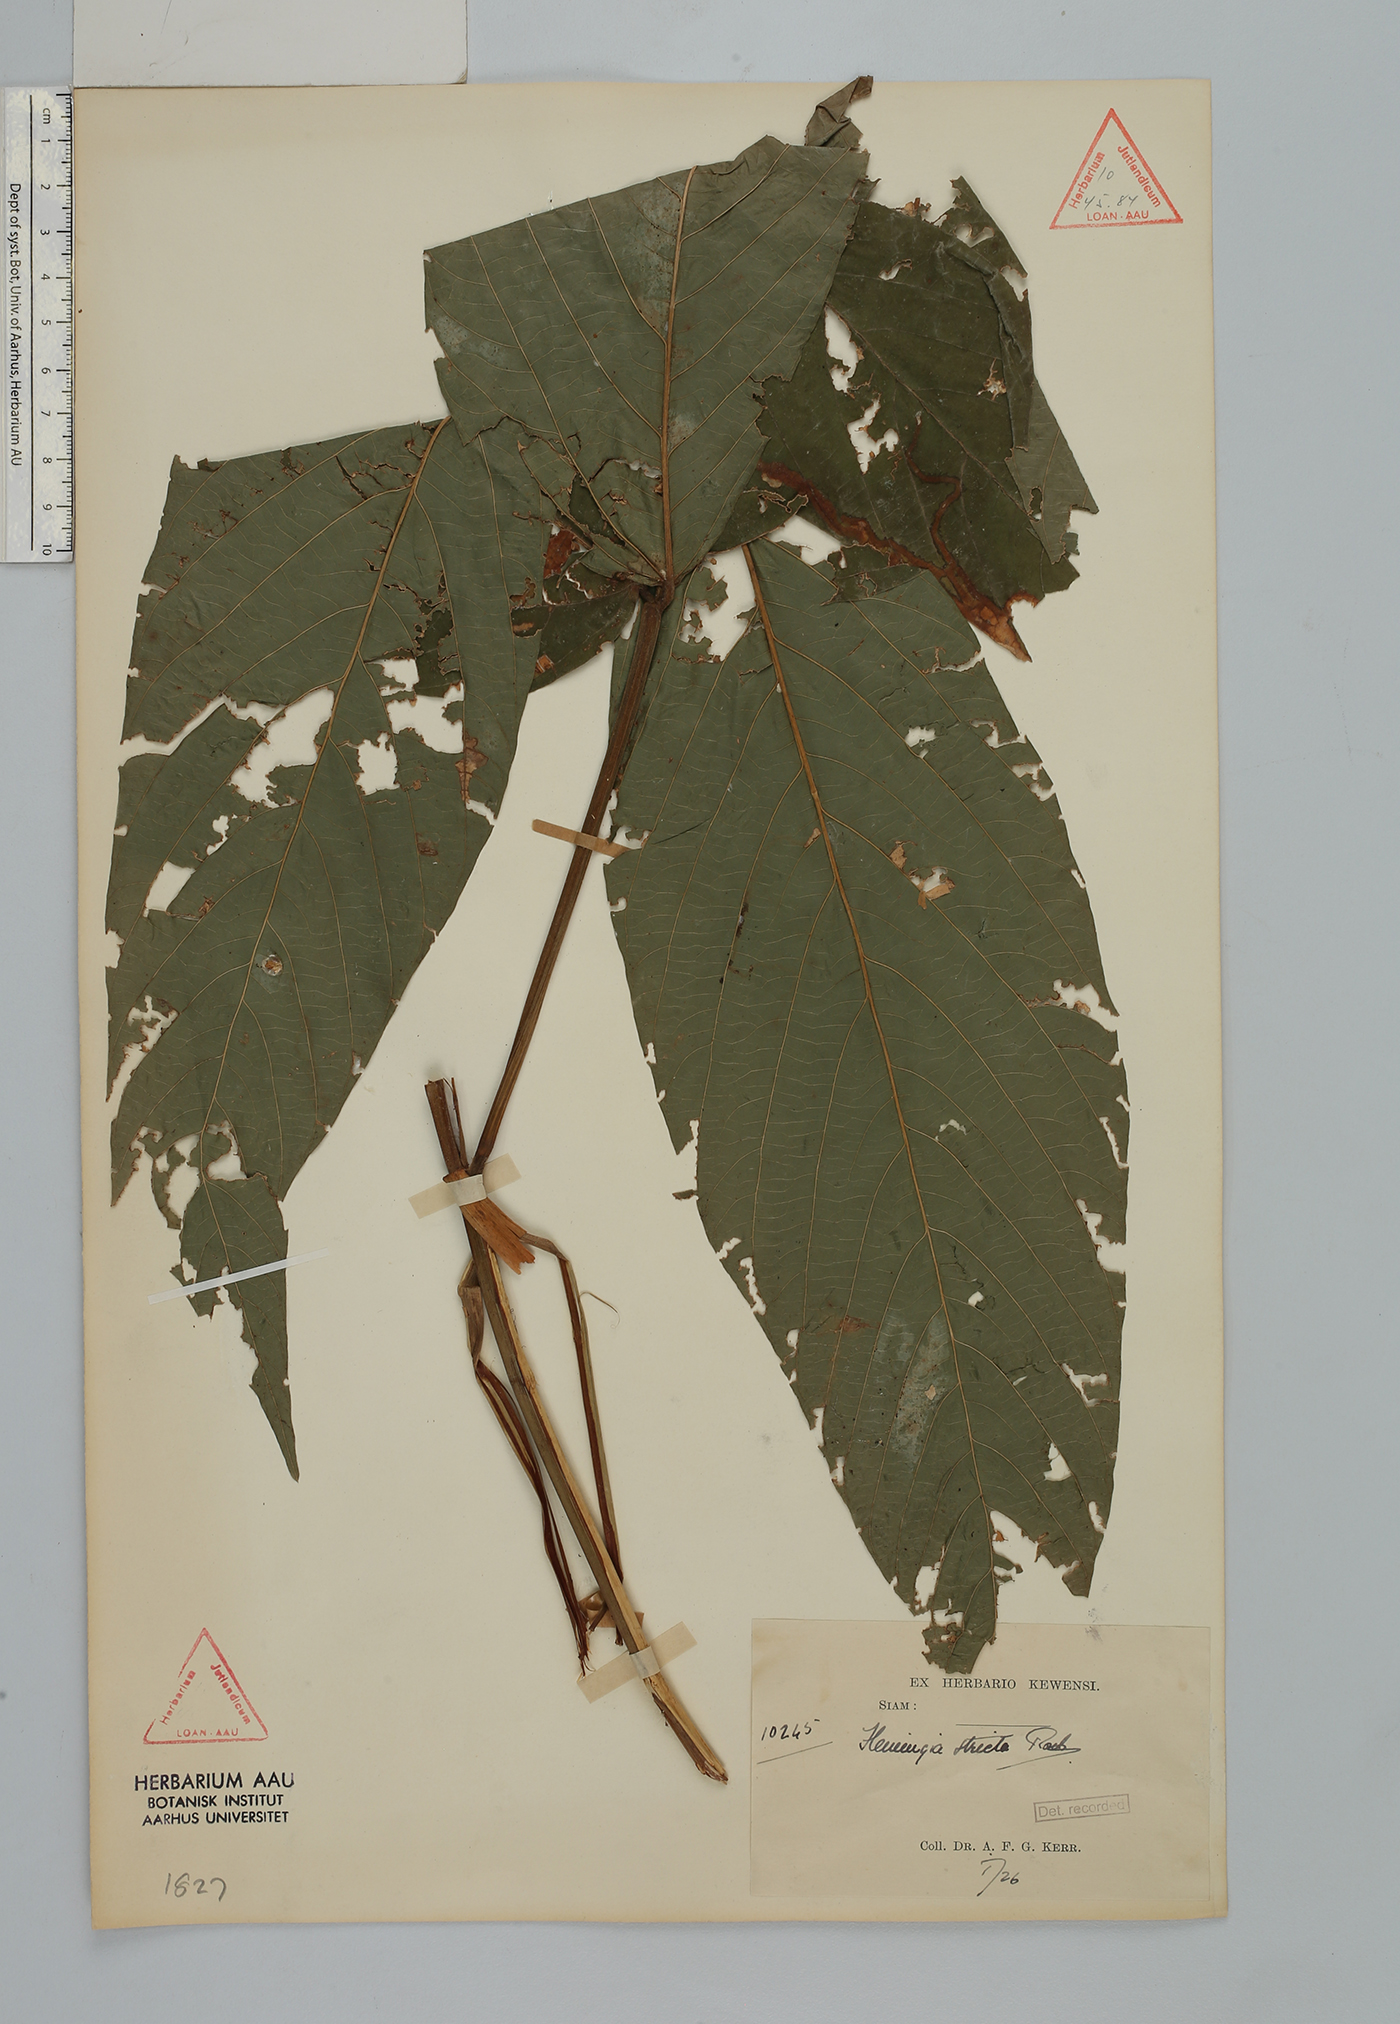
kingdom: Plantae
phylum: Tracheophyta
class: Magnoliopsida
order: Fabales
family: Fabaceae
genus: Flemingia
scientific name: Flemingia stricta
